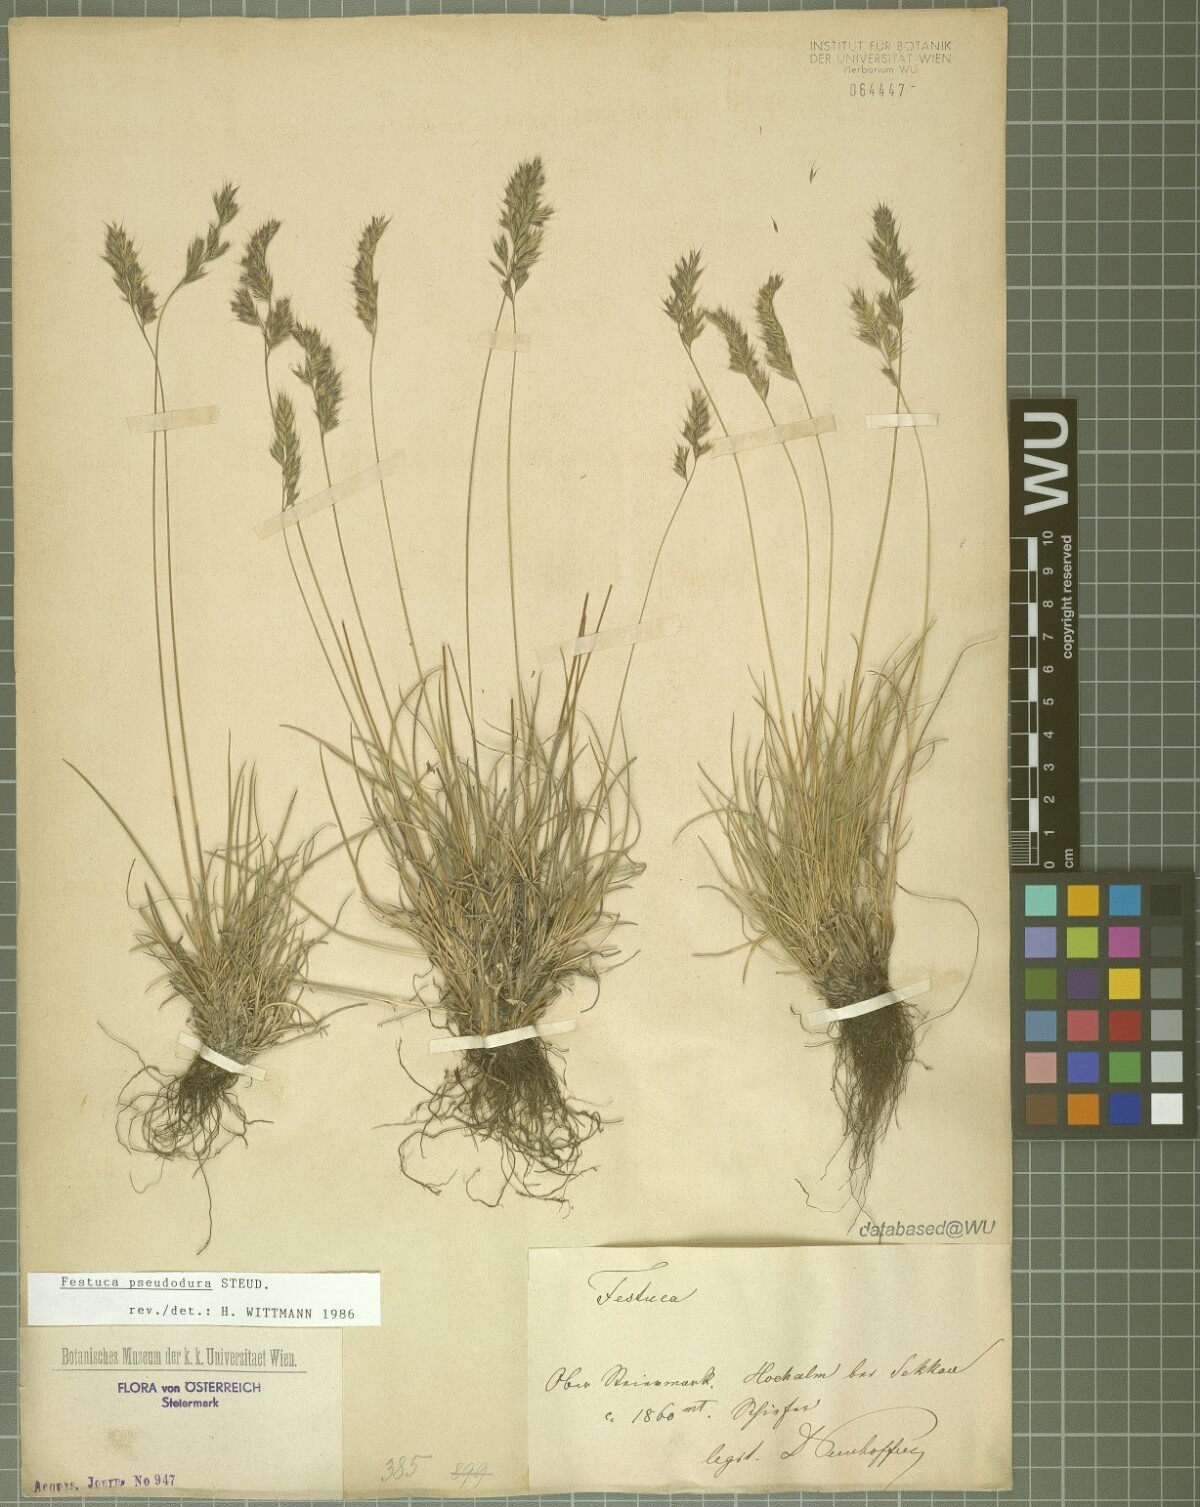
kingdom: Plantae
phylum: Tracheophyta
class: Liliopsida
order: Poales
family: Poaceae
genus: Festuca
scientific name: Festuca pseudodura
